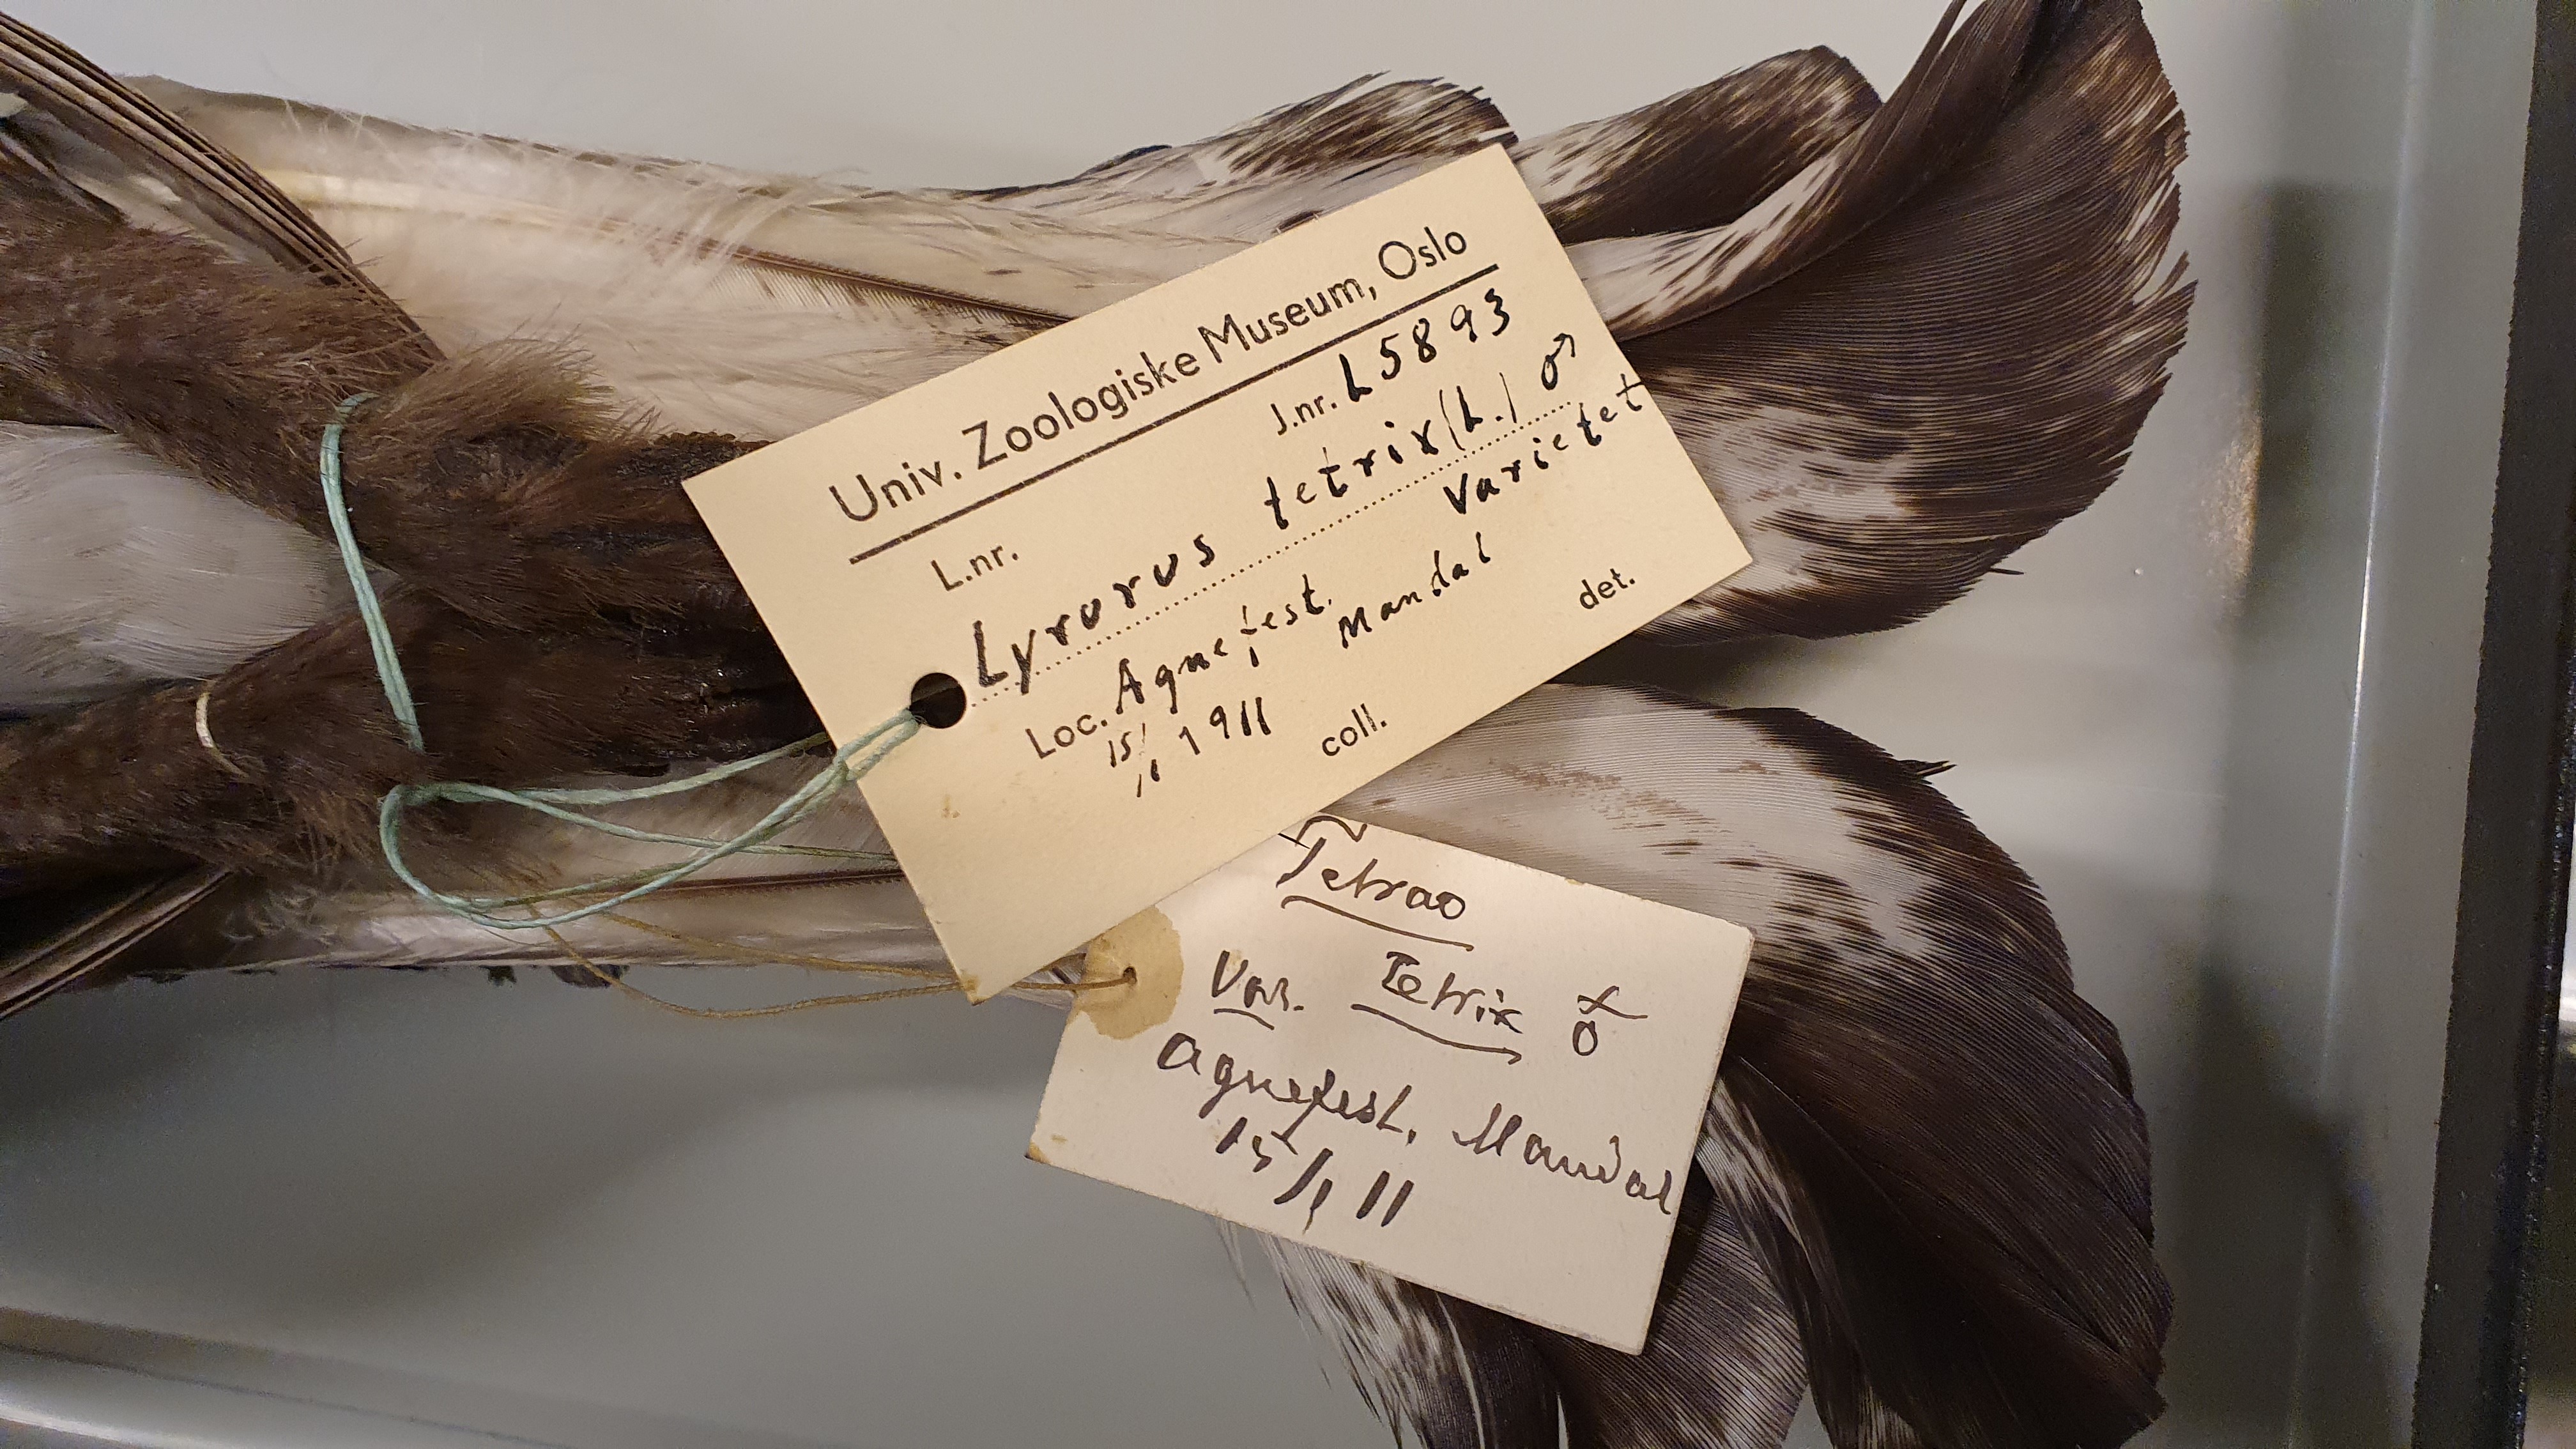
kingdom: Animalia
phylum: Chordata
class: Aves
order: Galliformes
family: Phasianidae
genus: Lyrurus
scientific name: Lyrurus tetrix
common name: Black grouse
